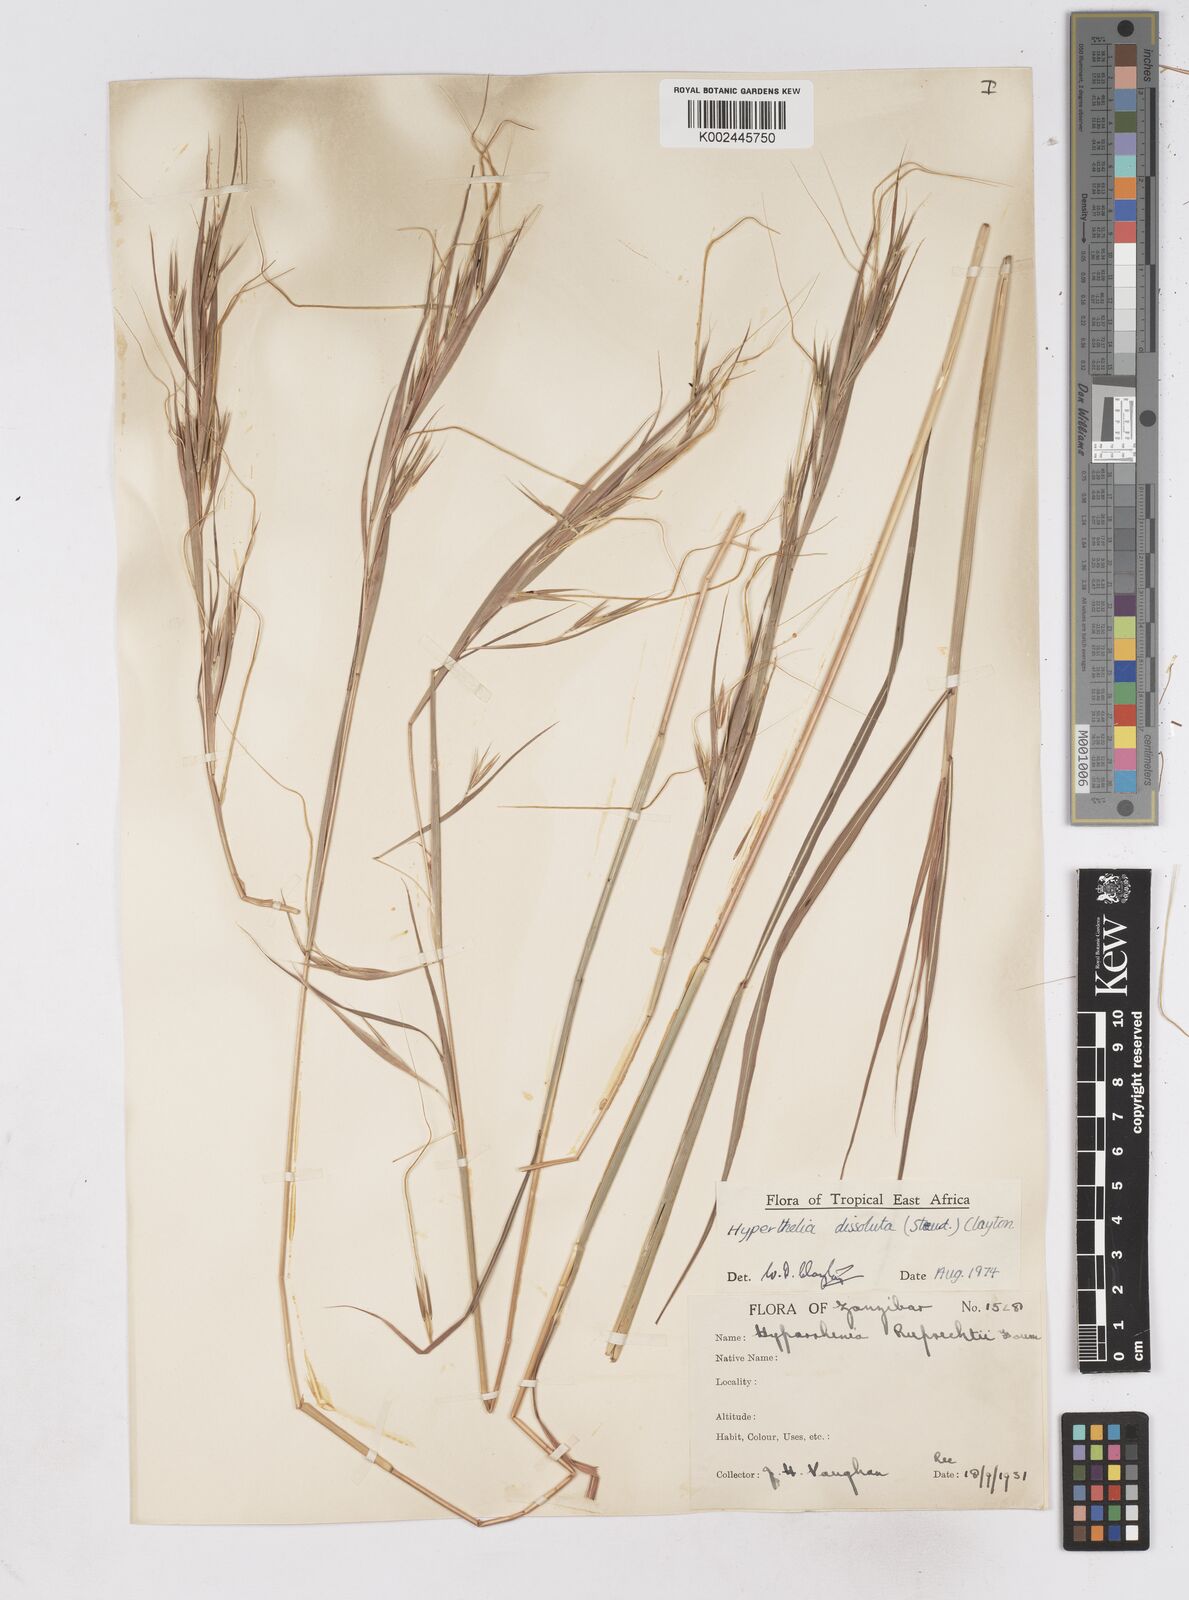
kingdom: Plantae
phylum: Tracheophyta
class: Liliopsida
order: Poales
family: Poaceae
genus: Hyperthelia
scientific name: Hyperthelia dissoluta
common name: Yellow thatching grass
